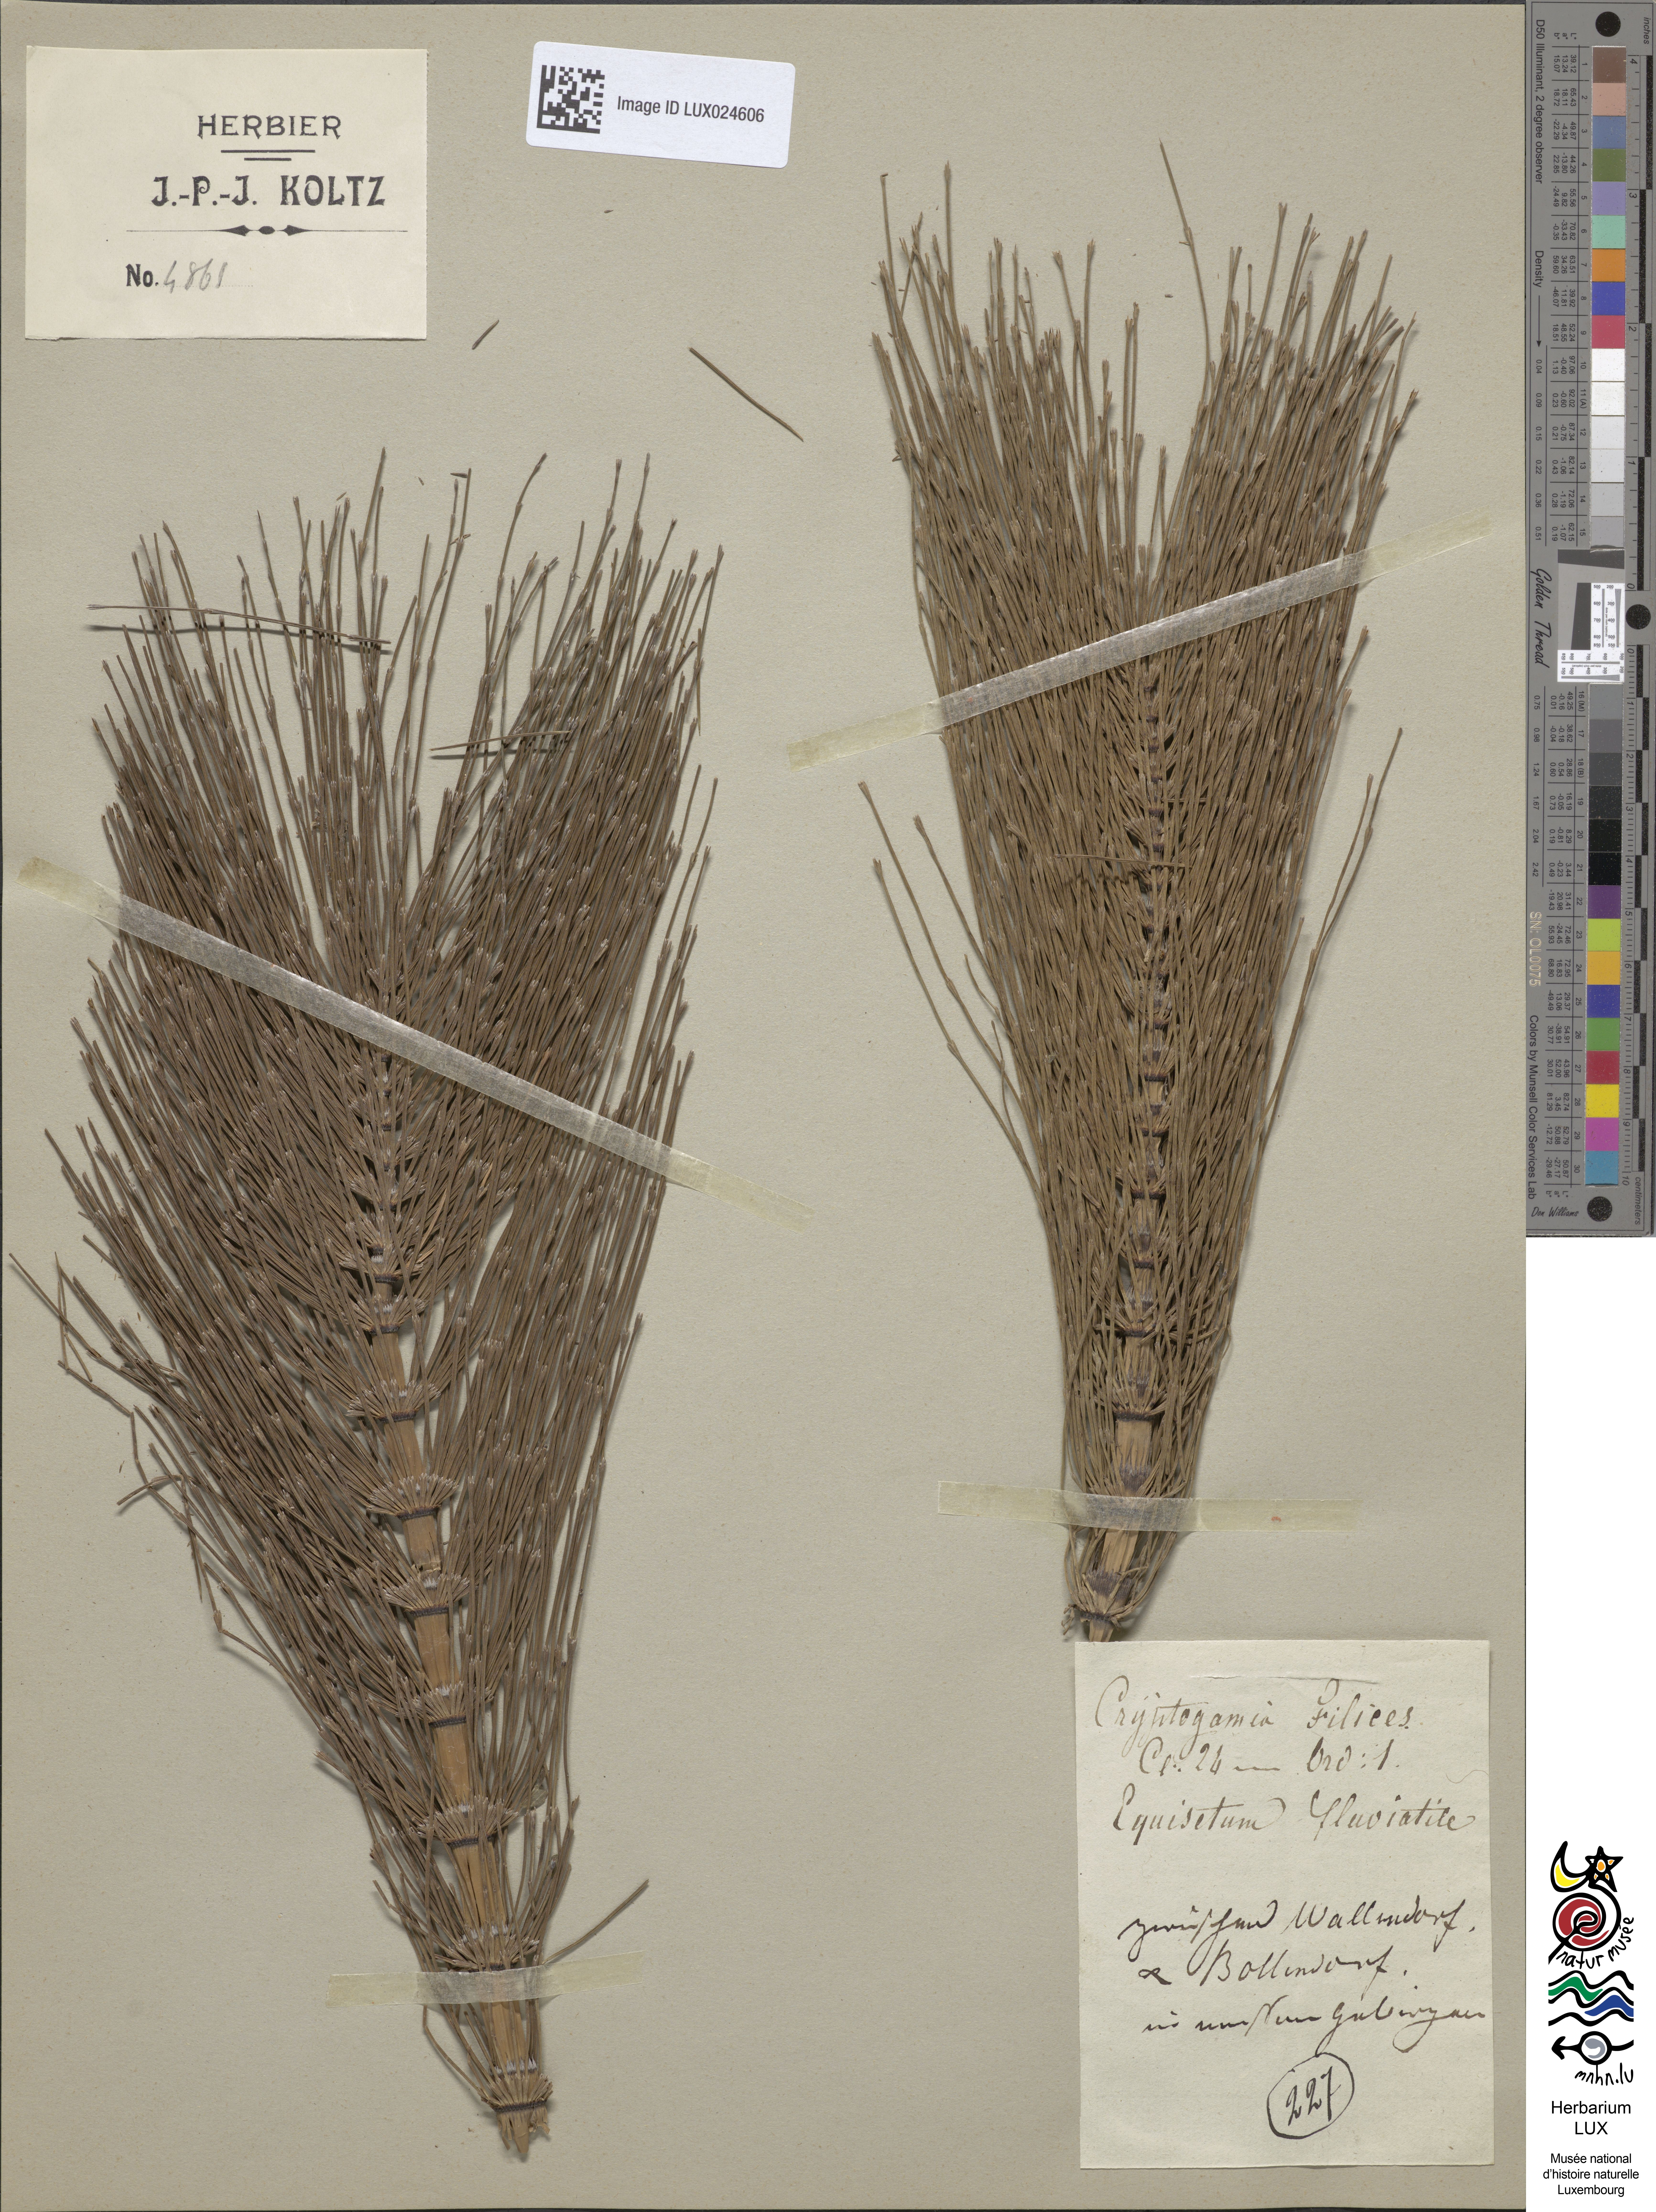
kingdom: Plantae
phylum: Tracheophyta
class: Polypodiopsida
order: Equisetales
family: Equisetaceae
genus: Equisetum
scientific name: Equisetum telmateia
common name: Great horsetail
